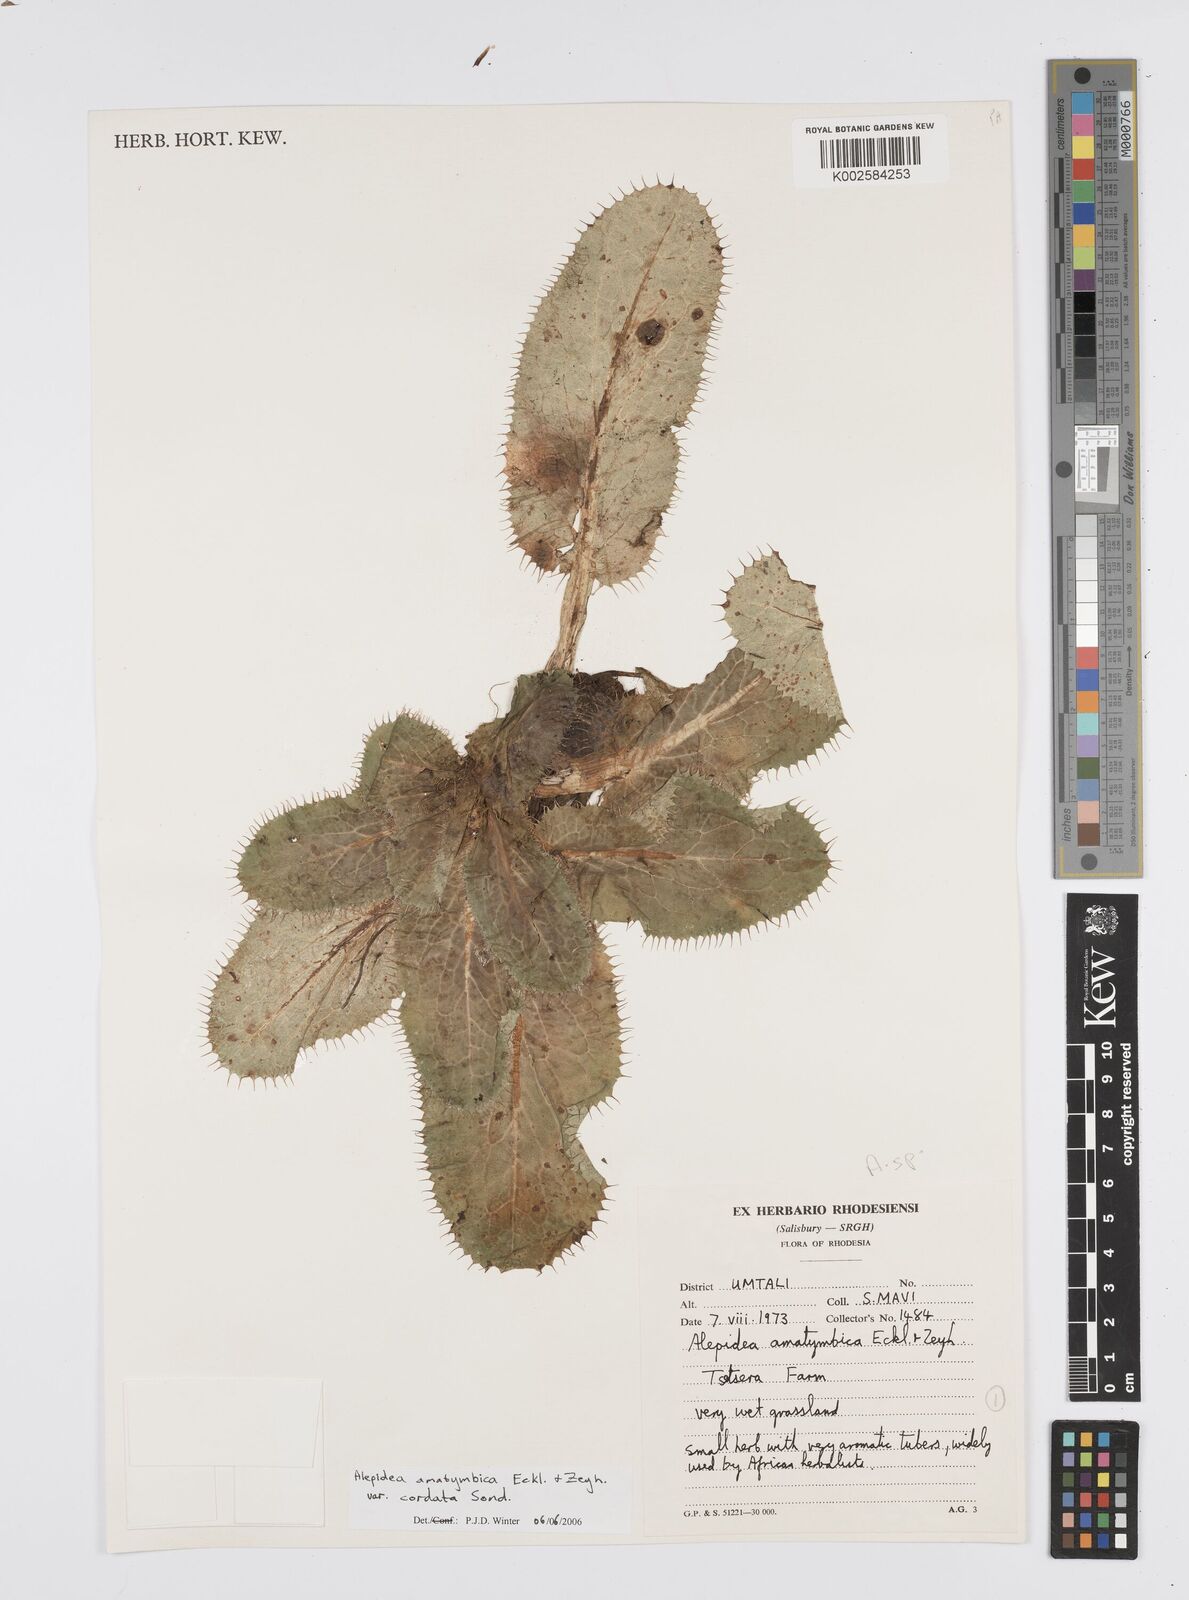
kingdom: Plantae
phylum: Tracheophyta
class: Magnoliopsida
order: Apiales
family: Apiaceae
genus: Alepidea
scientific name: Alepidea cordifolia
